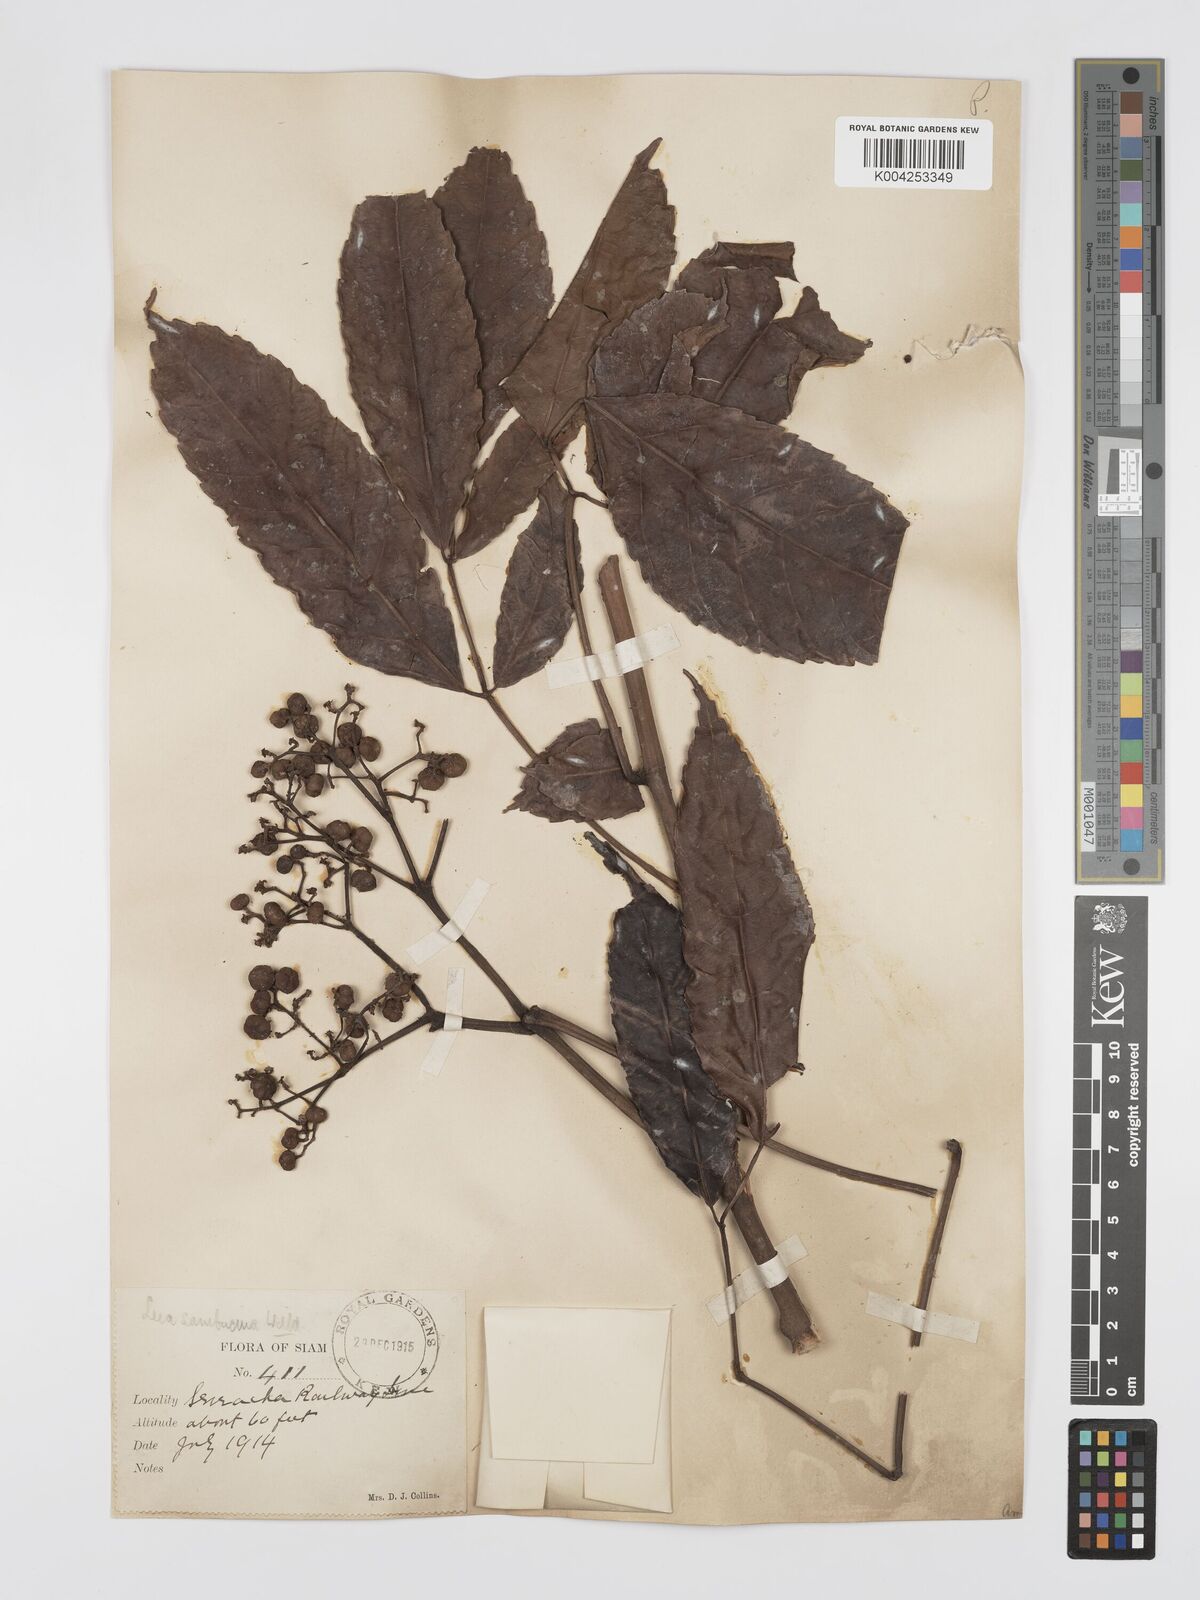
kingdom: Plantae
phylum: Tracheophyta
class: Magnoliopsida
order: Vitales
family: Vitaceae
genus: Leea
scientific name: Leea indica
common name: Bandicoot-berry
